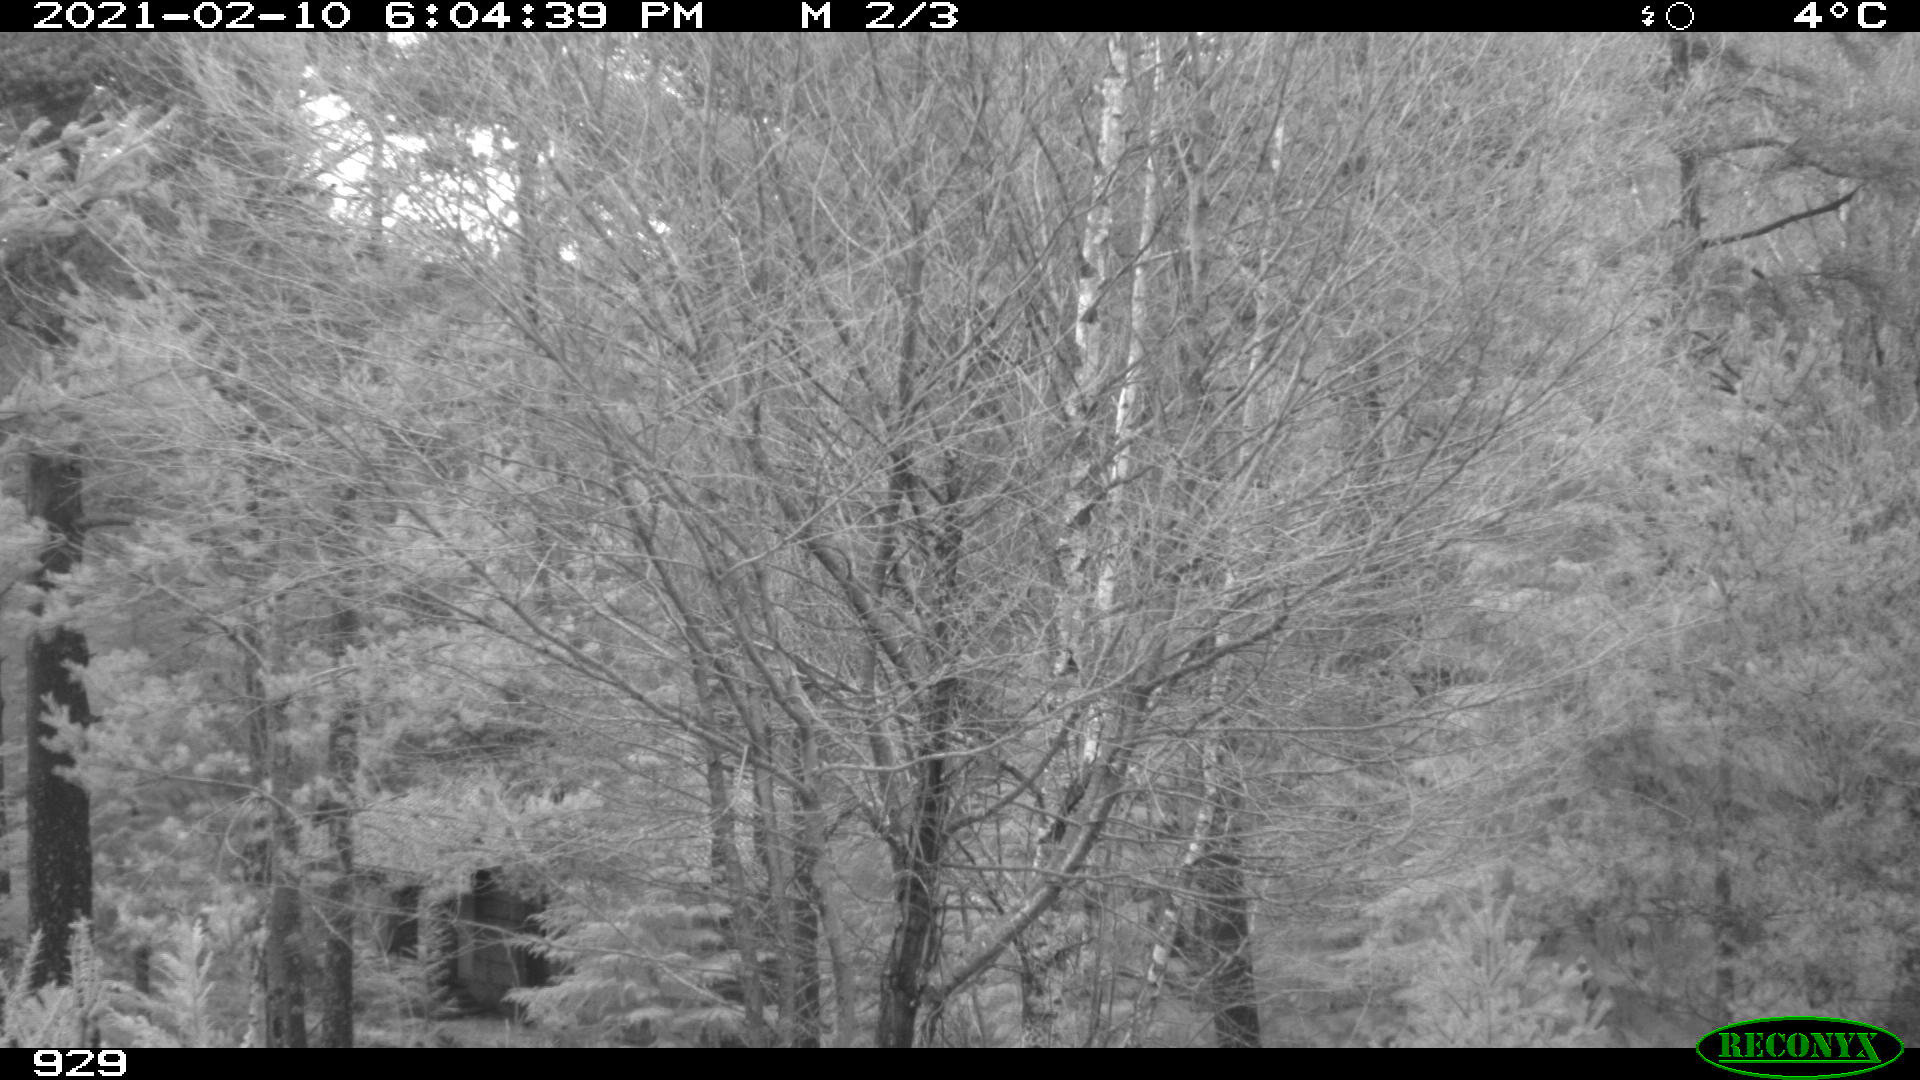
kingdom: Animalia
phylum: Chordata
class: Mammalia
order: Perissodactyla
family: Equidae
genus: Equus
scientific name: Equus caballus
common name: Horse
